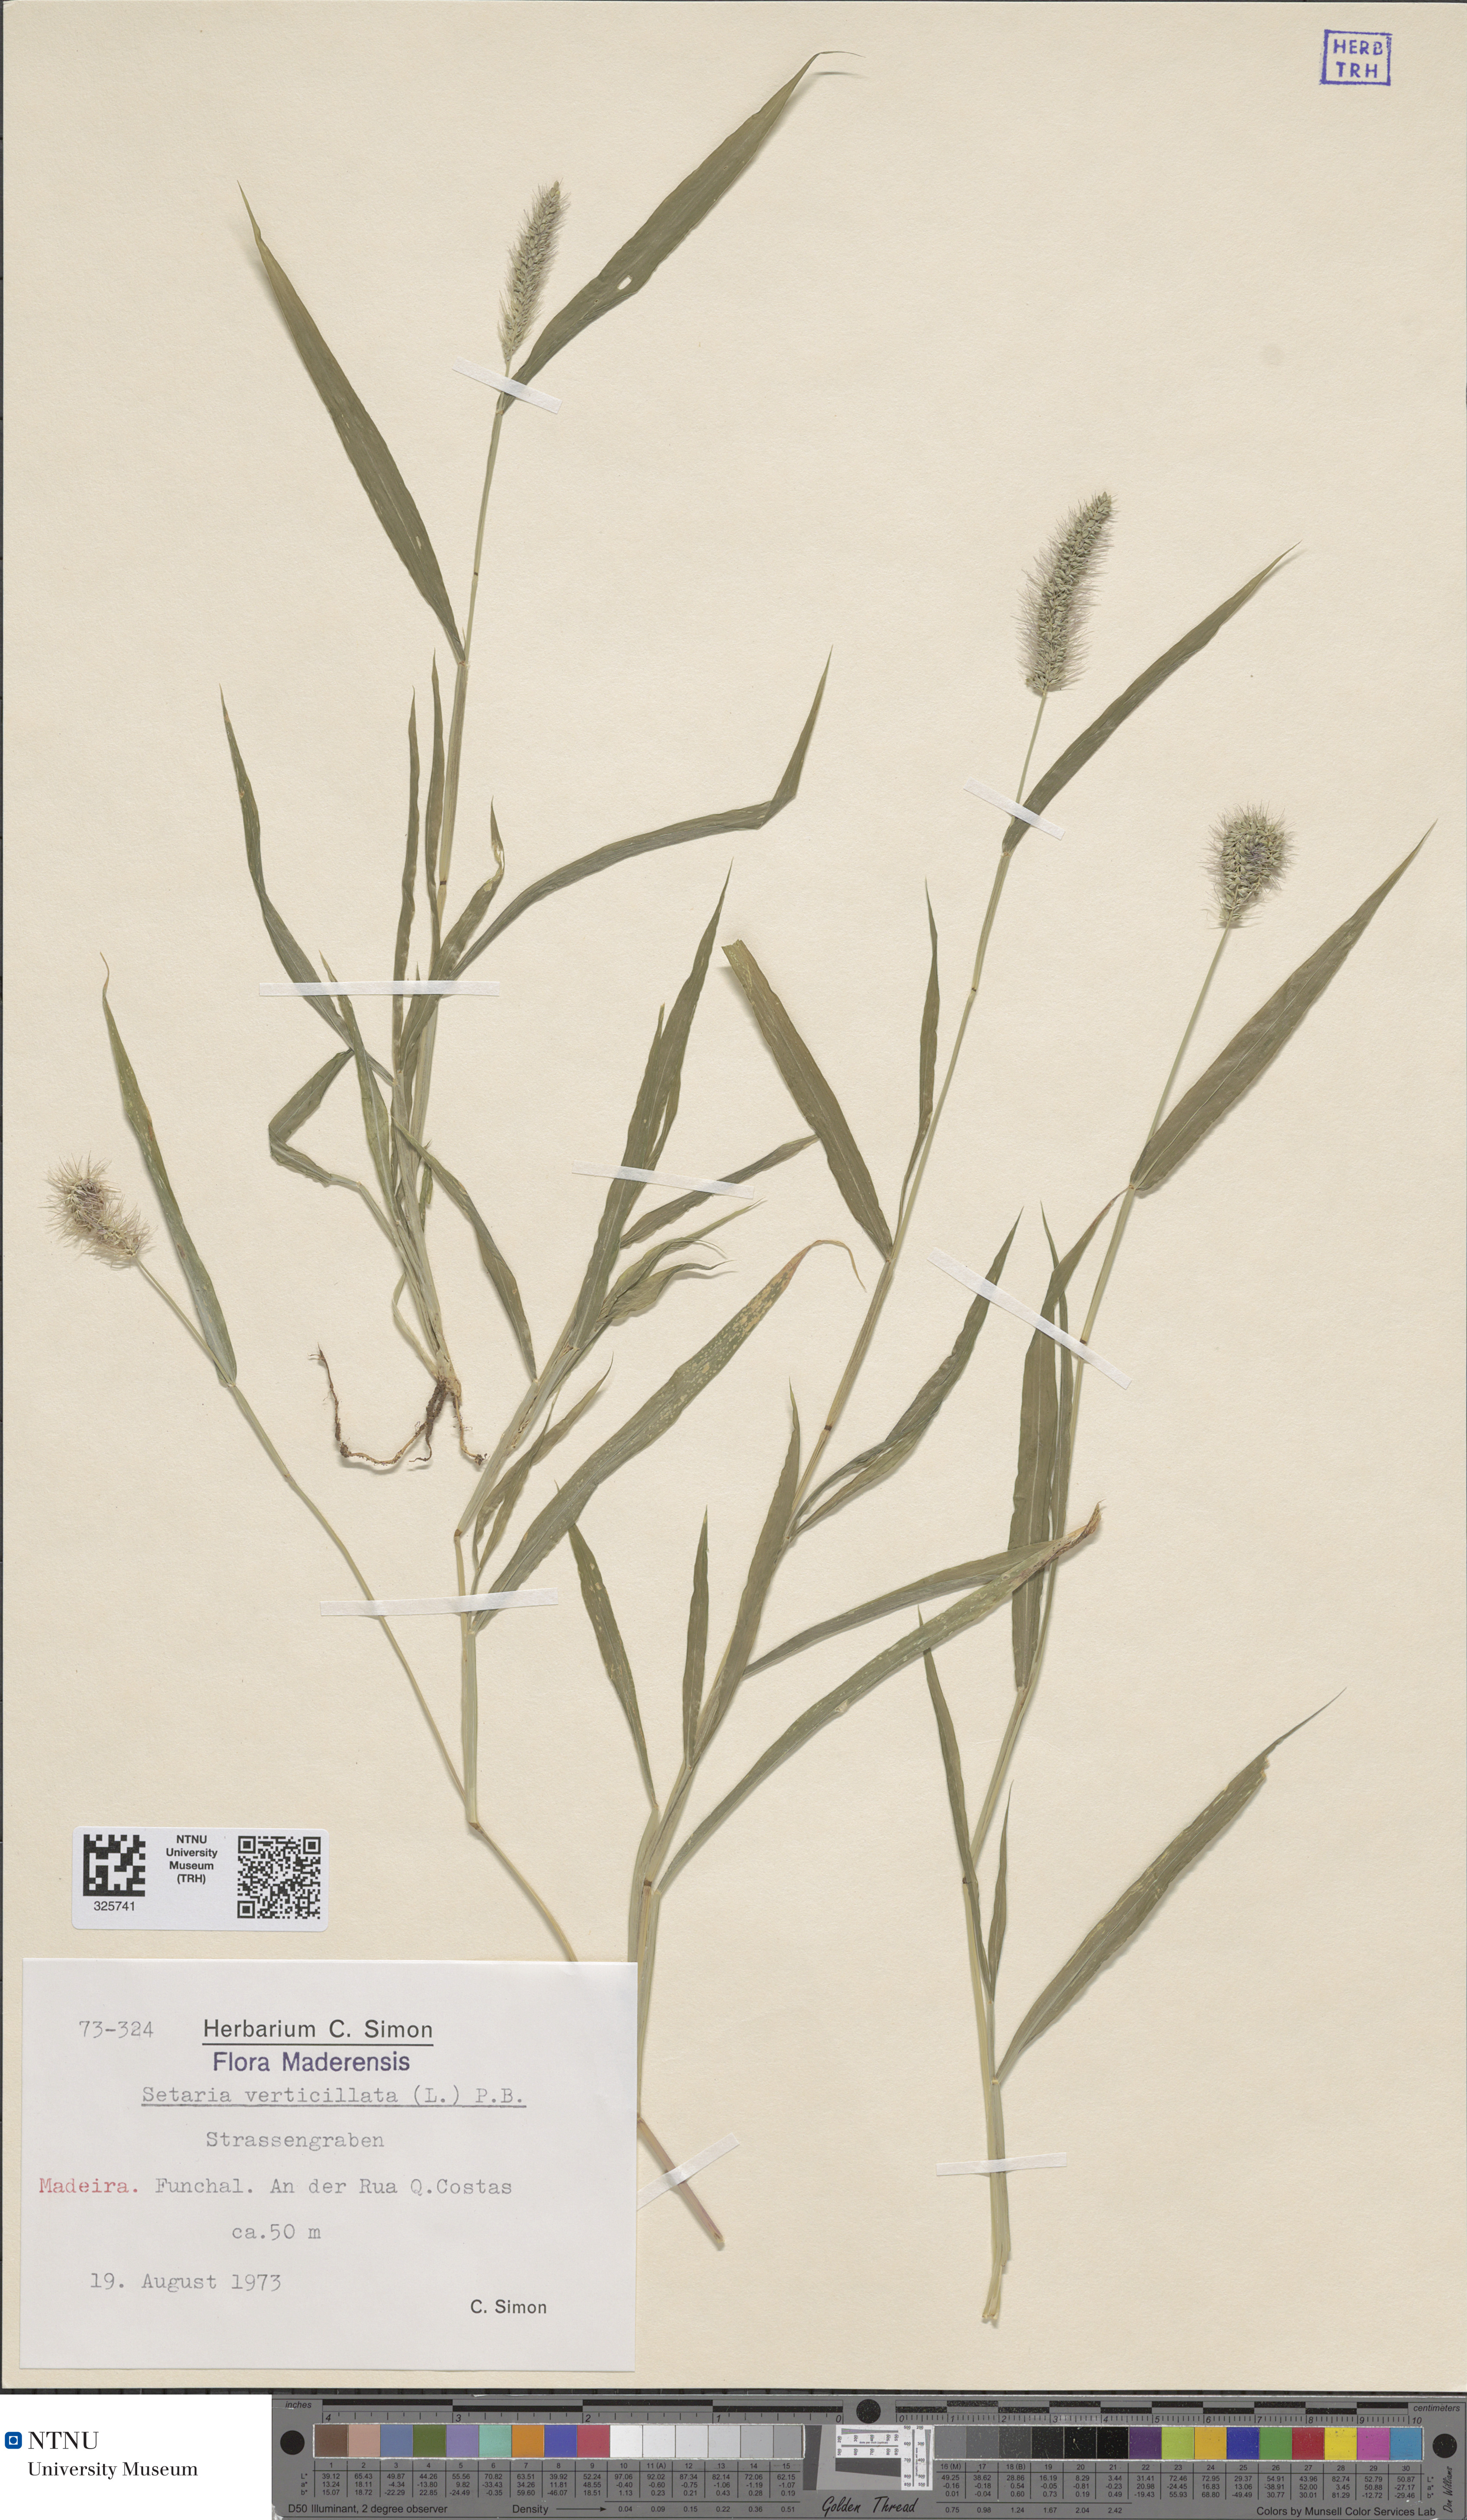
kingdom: Plantae
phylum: Tracheophyta
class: Liliopsida
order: Poales
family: Poaceae
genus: Setaria
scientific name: Setaria verticillata
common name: Hooked bristlegrass
